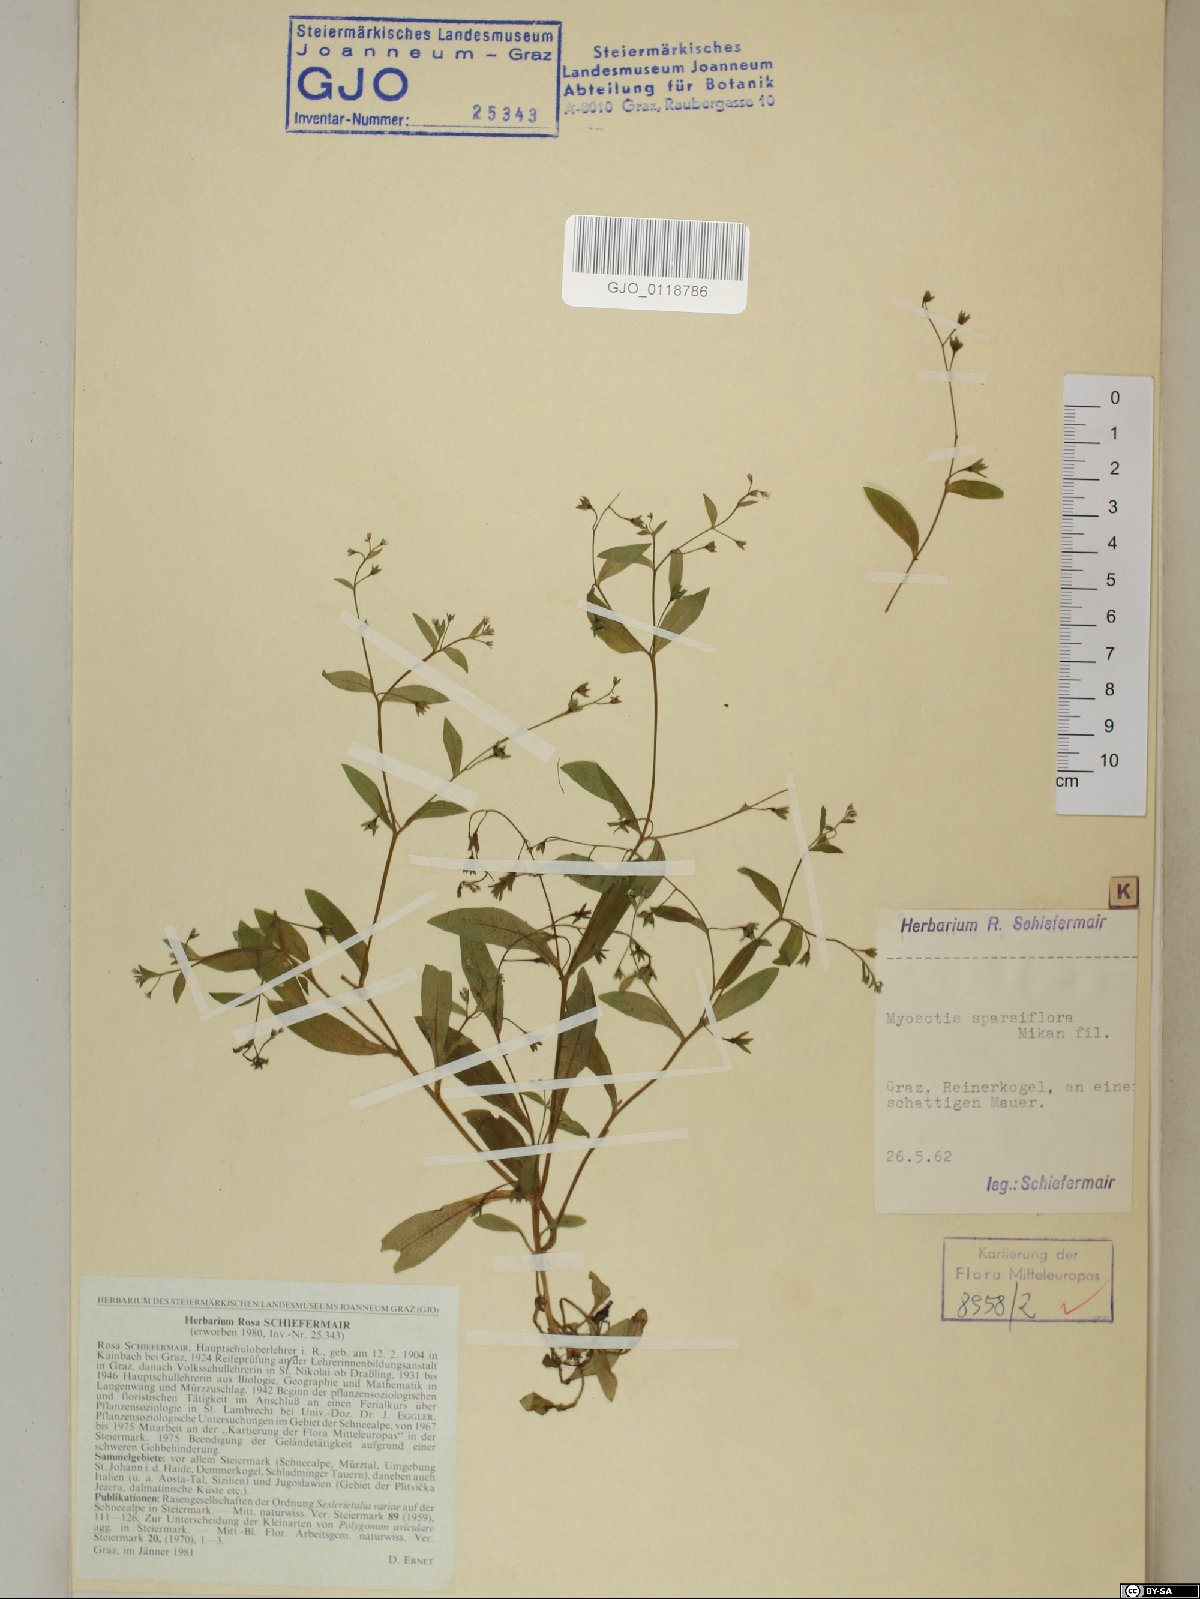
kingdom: Plantae
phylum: Tracheophyta
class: Magnoliopsida
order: Boraginales
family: Boraginaceae
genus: Myosotis
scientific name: Myosotis sparsiflora
